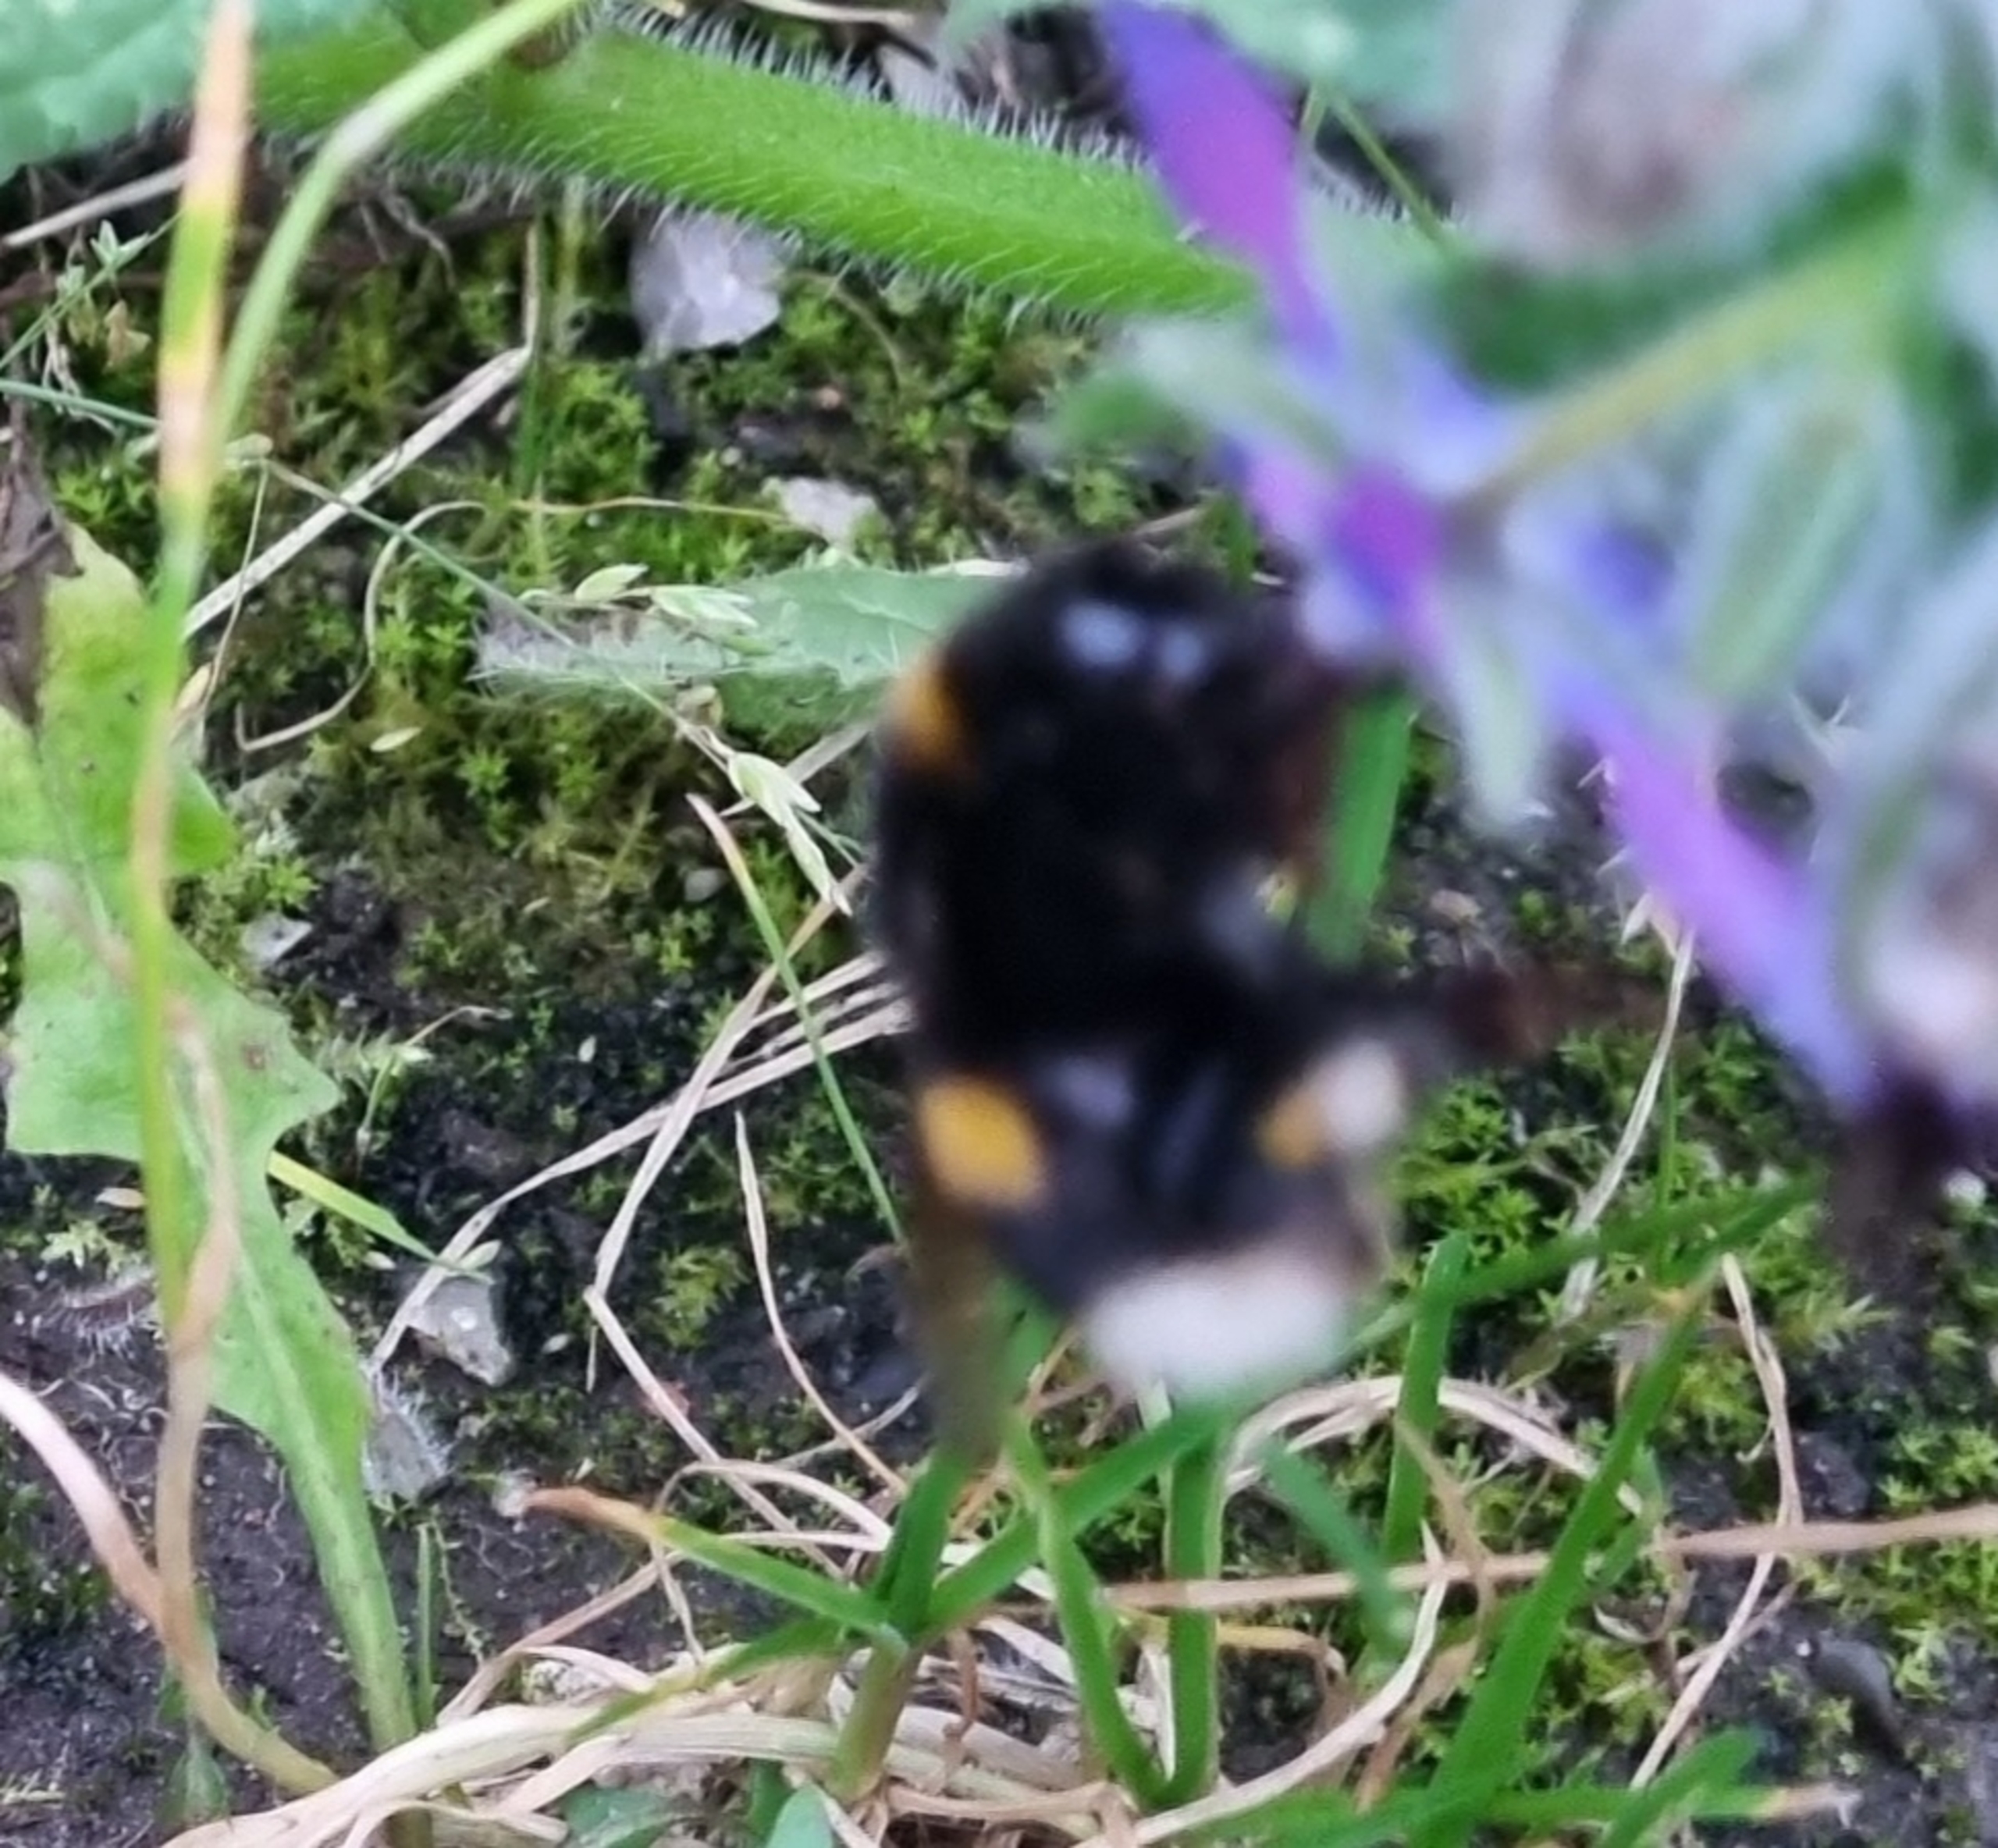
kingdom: Animalia
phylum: Arthropoda
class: Insecta
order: Hymenoptera
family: Apidae
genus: Bombus
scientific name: Bombus
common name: Humlebier
